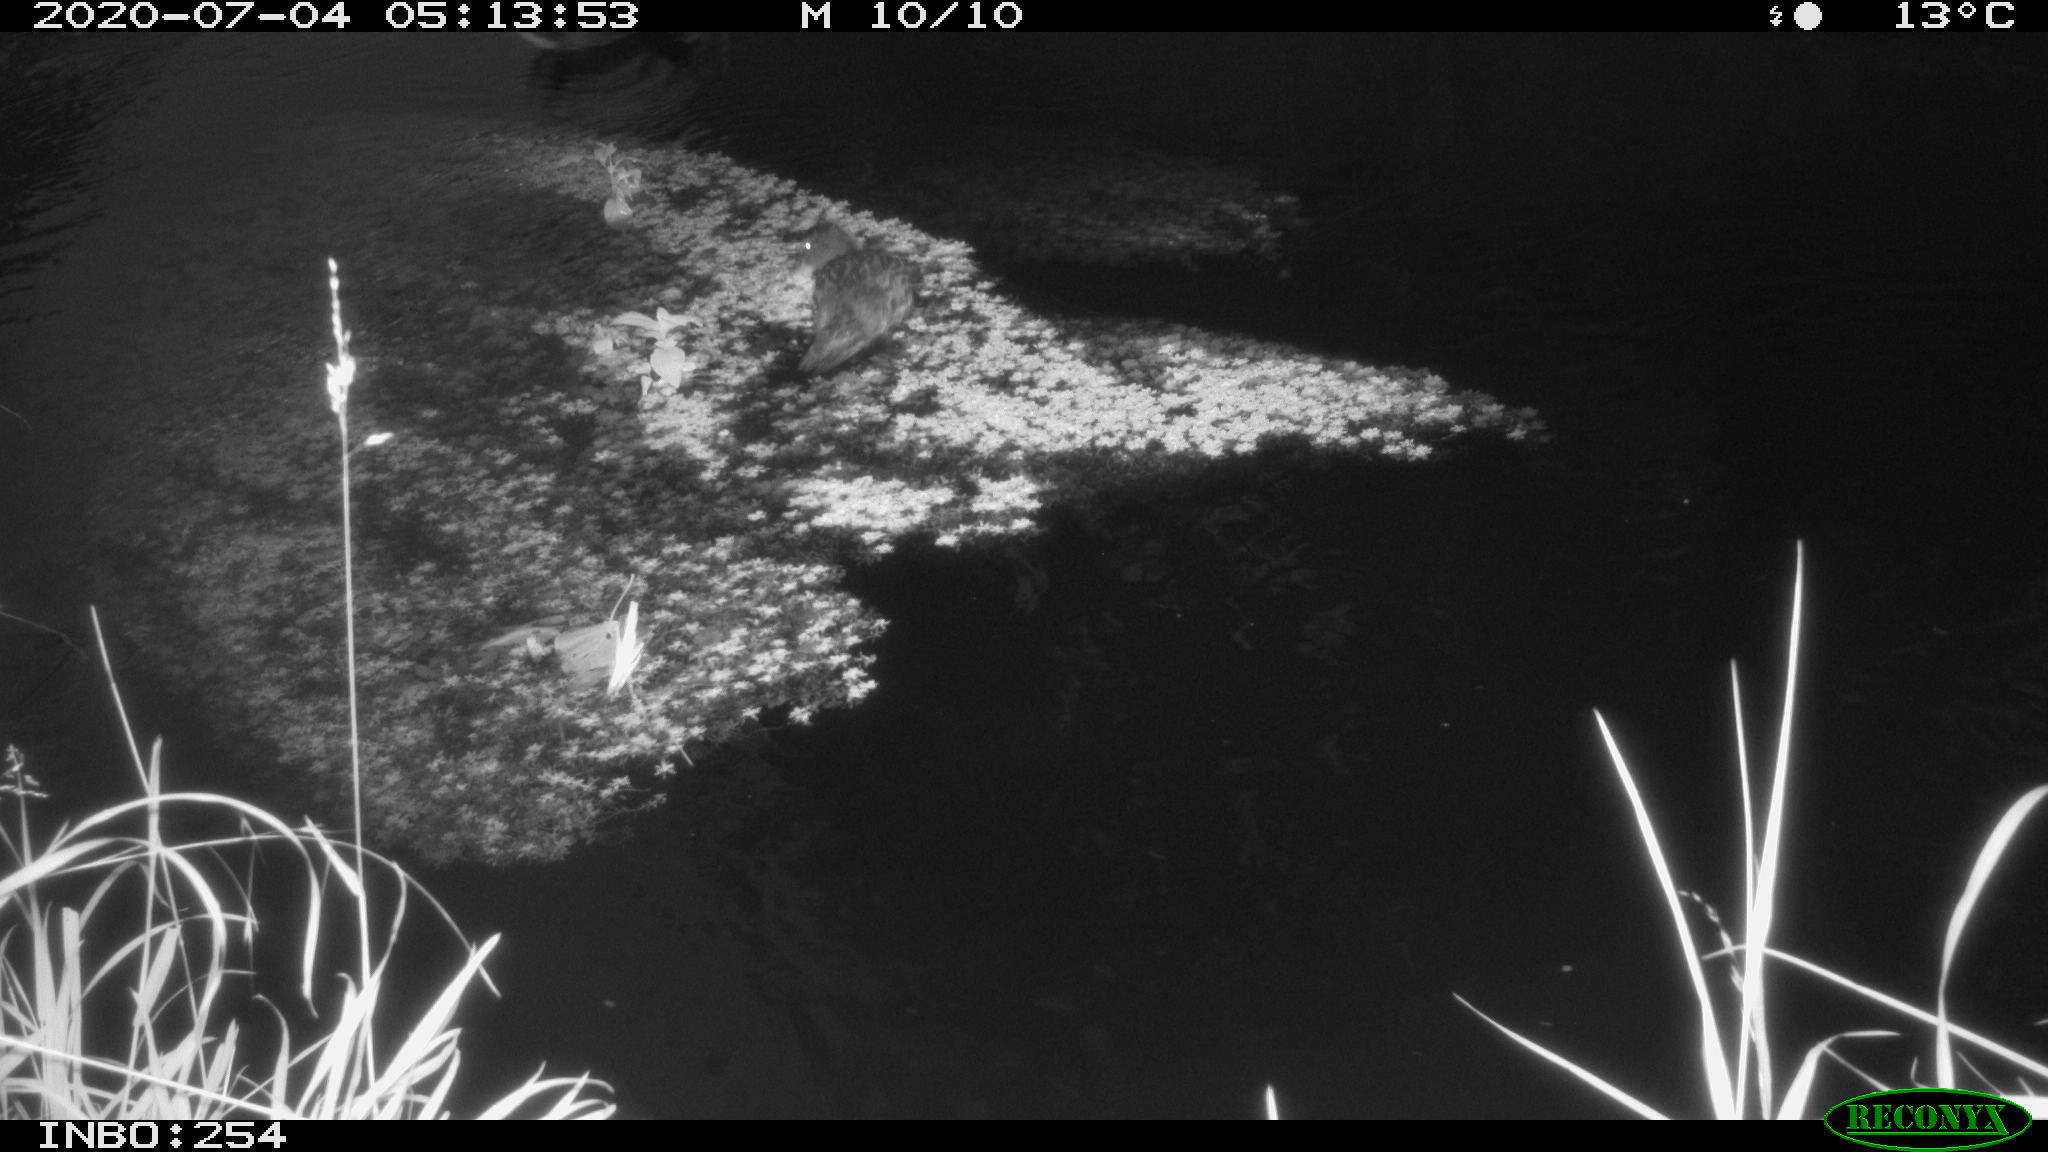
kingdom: Animalia
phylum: Chordata
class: Aves
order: Anseriformes
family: Anatidae
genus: Anas
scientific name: Anas platyrhynchos
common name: Mallard
